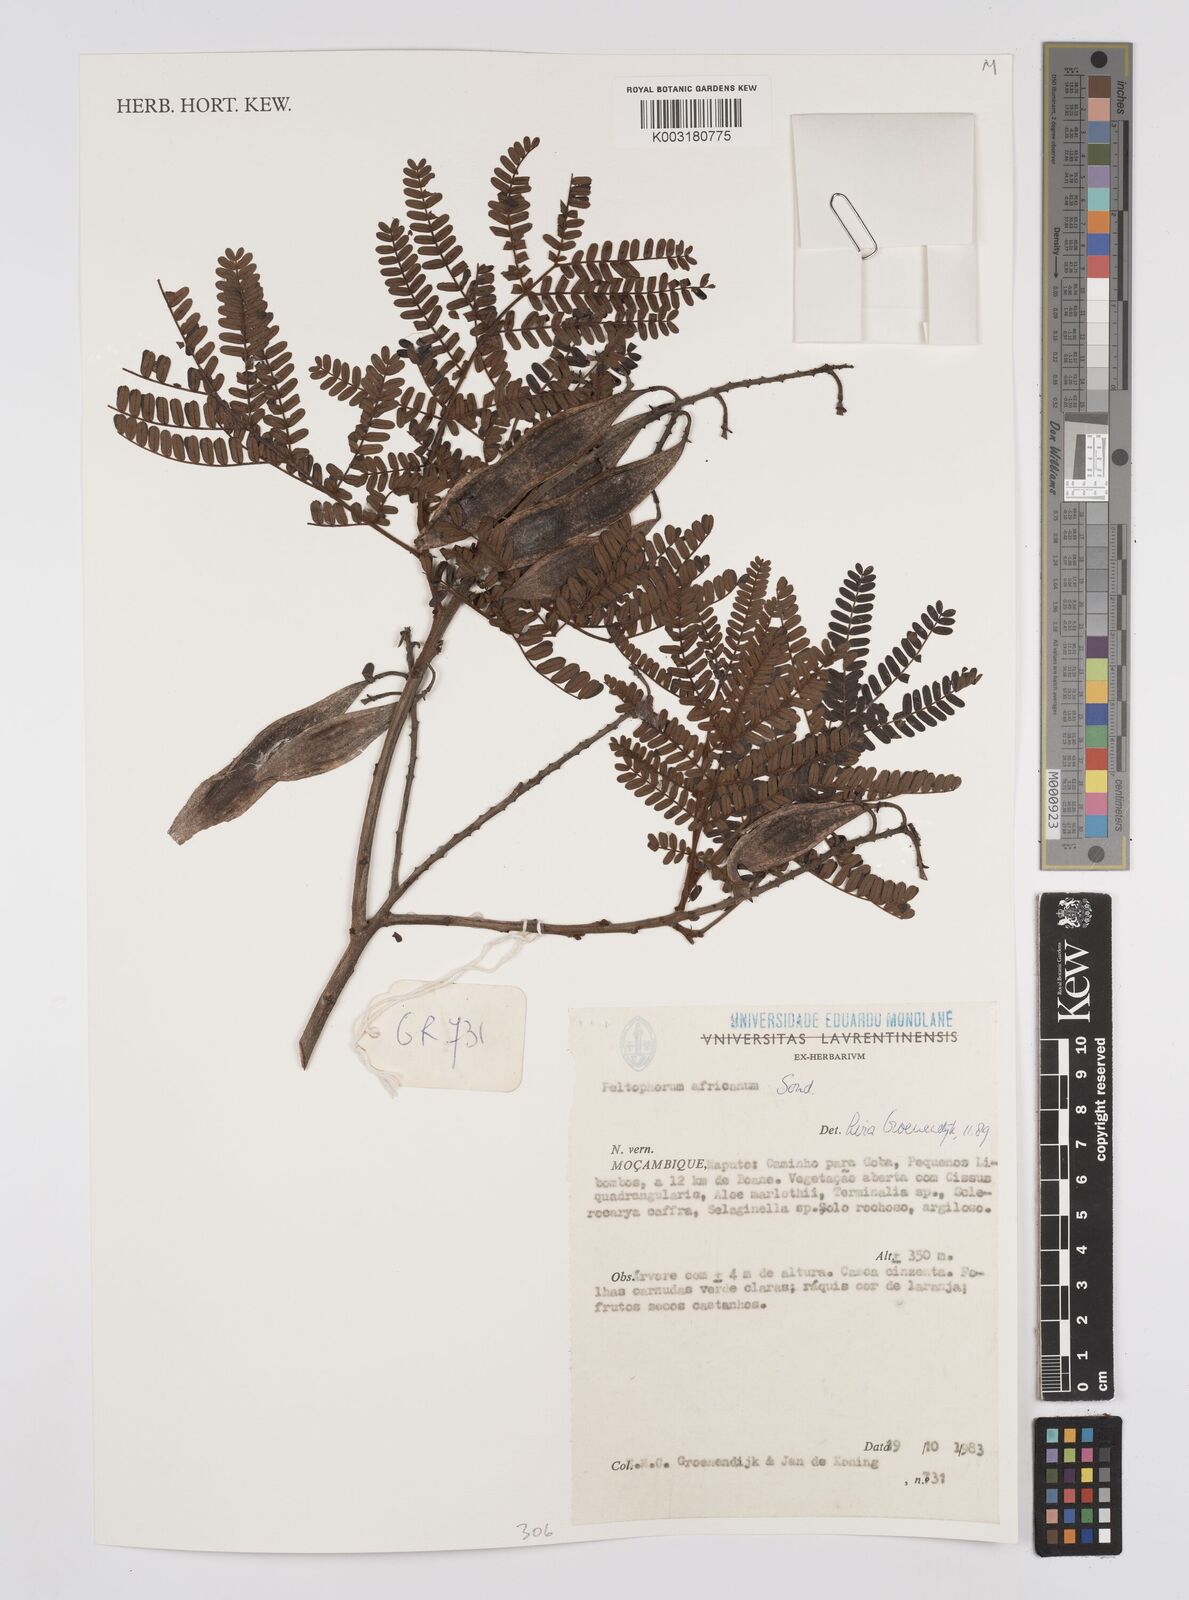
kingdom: Plantae
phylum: Tracheophyta
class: Magnoliopsida
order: Fabales
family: Fabaceae
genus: Peltophorum
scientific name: Peltophorum africanum
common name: African black wattle
